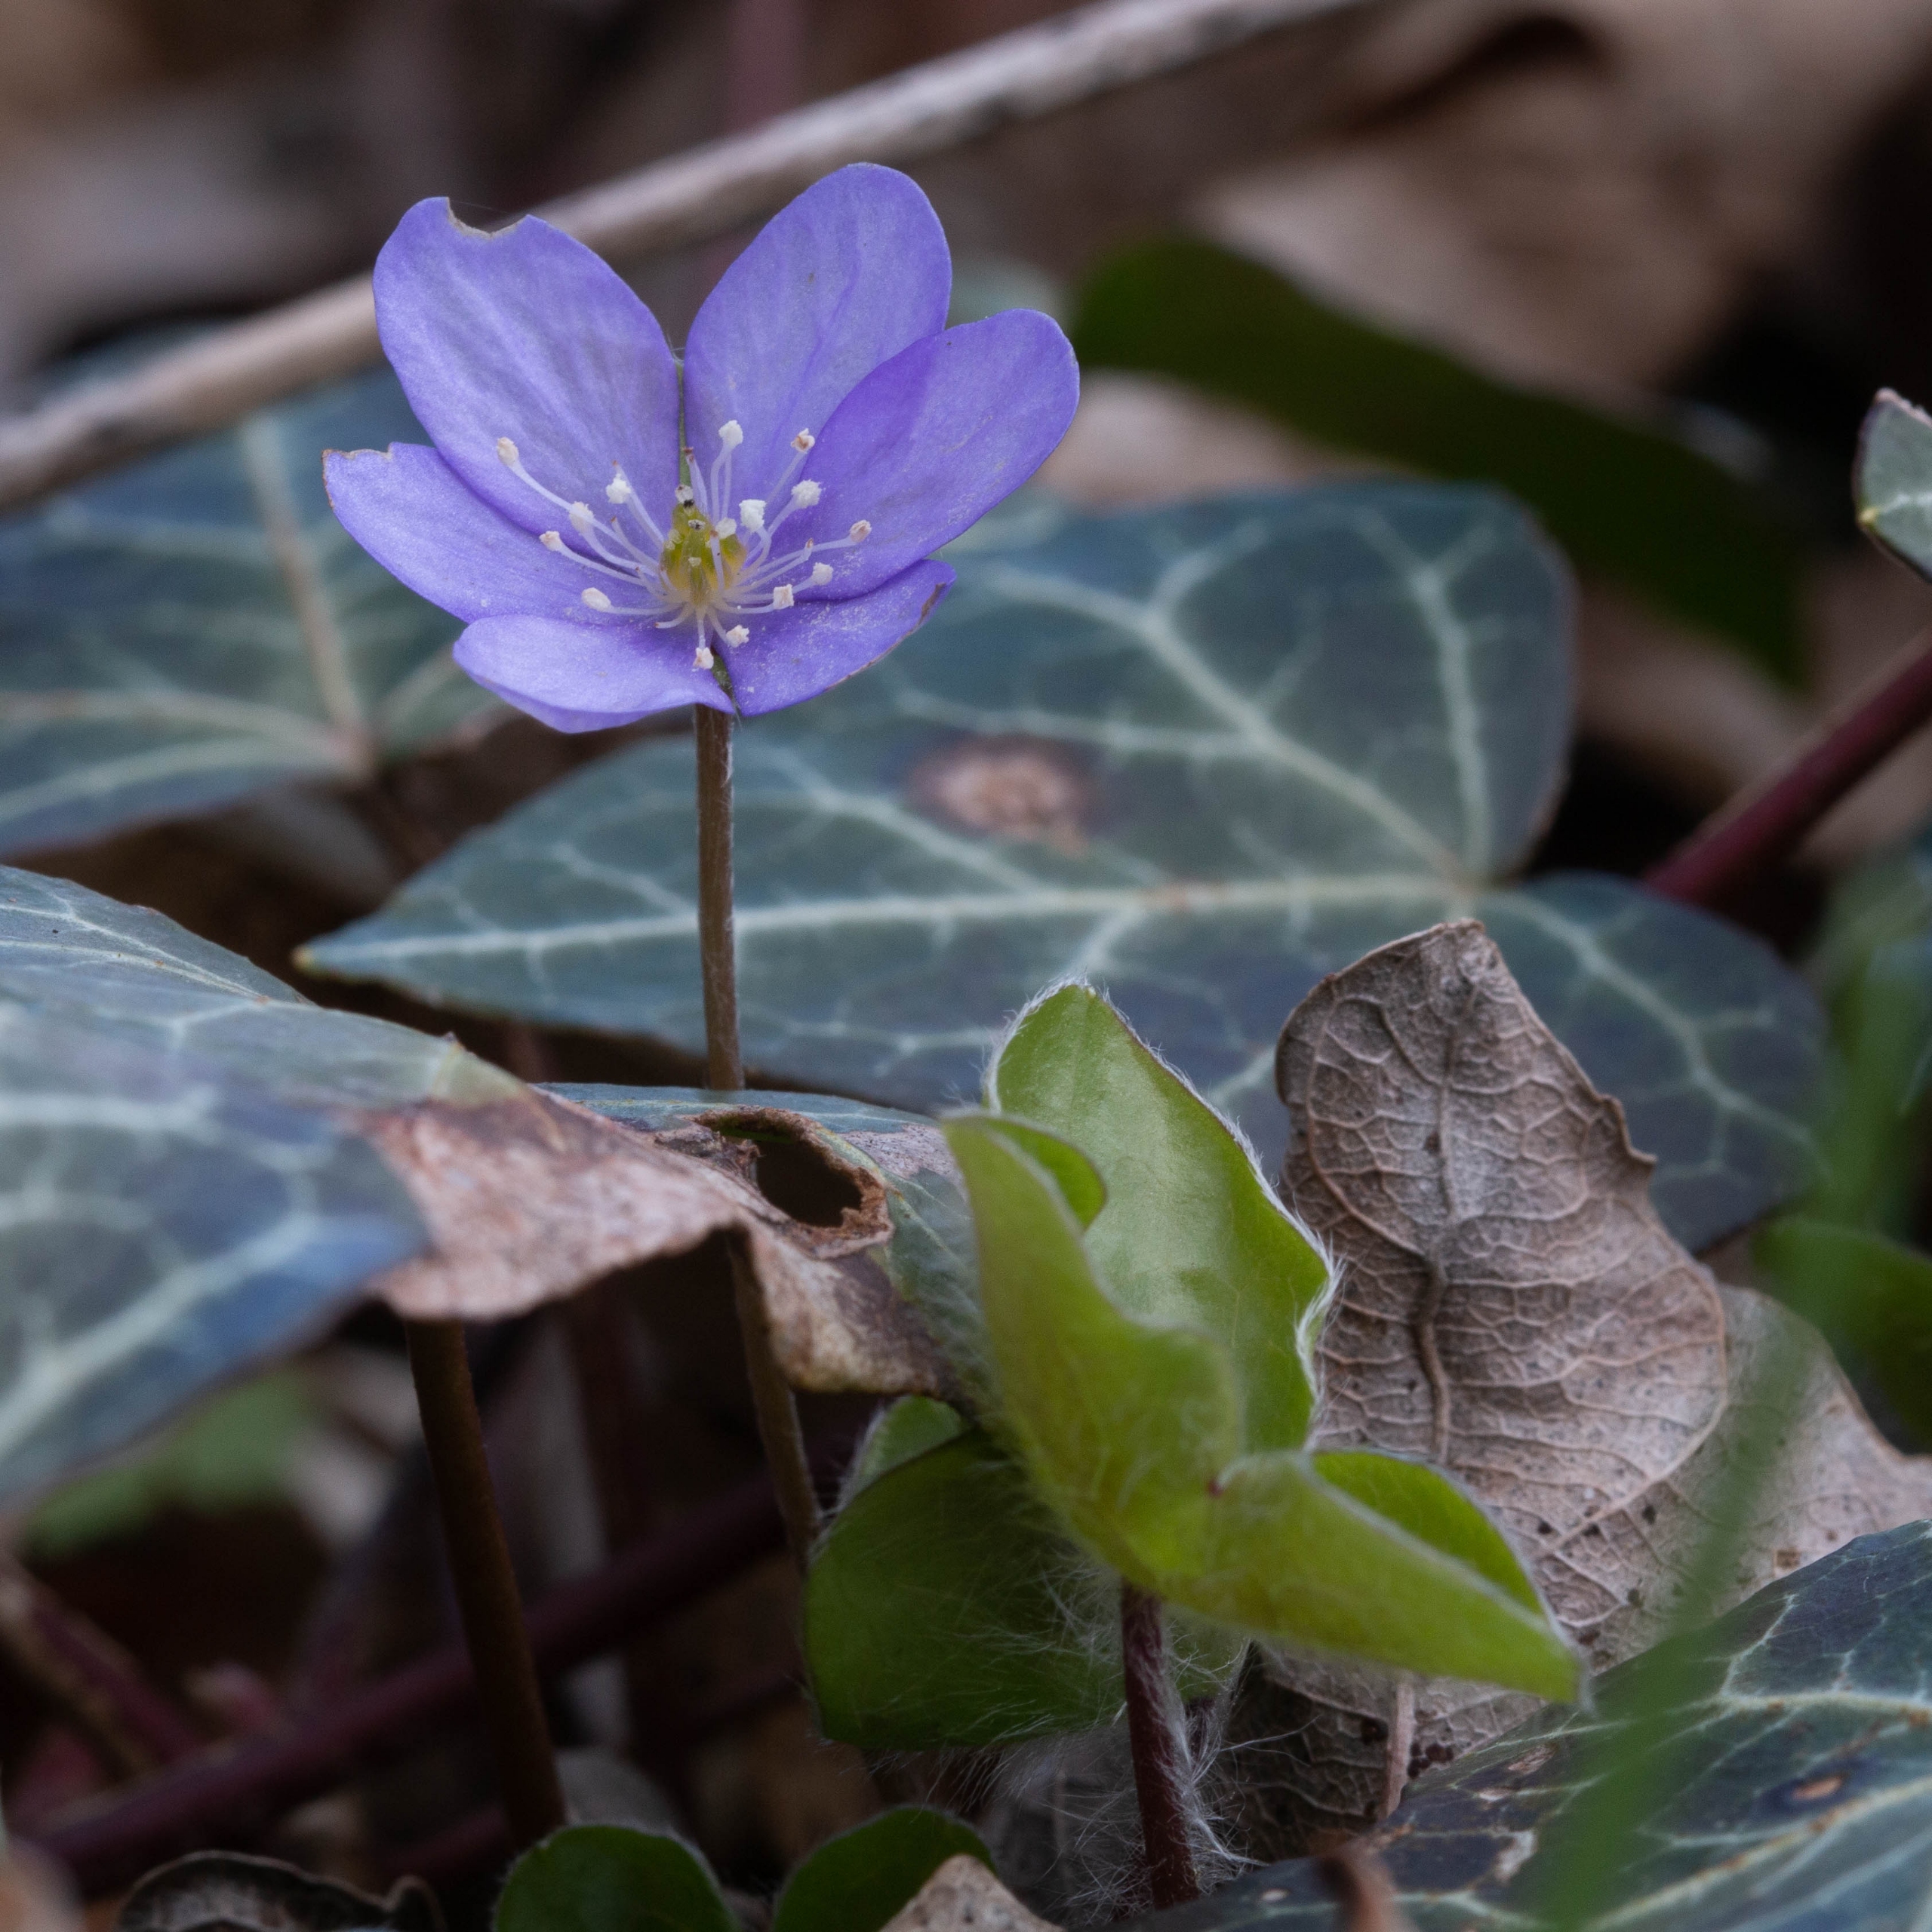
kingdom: Plantae
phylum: Tracheophyta
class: Magnoliopsida
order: Ranunculales
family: Ranunculaceae
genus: Hepatica
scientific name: Hepatica nobilis
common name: Blå anemone
